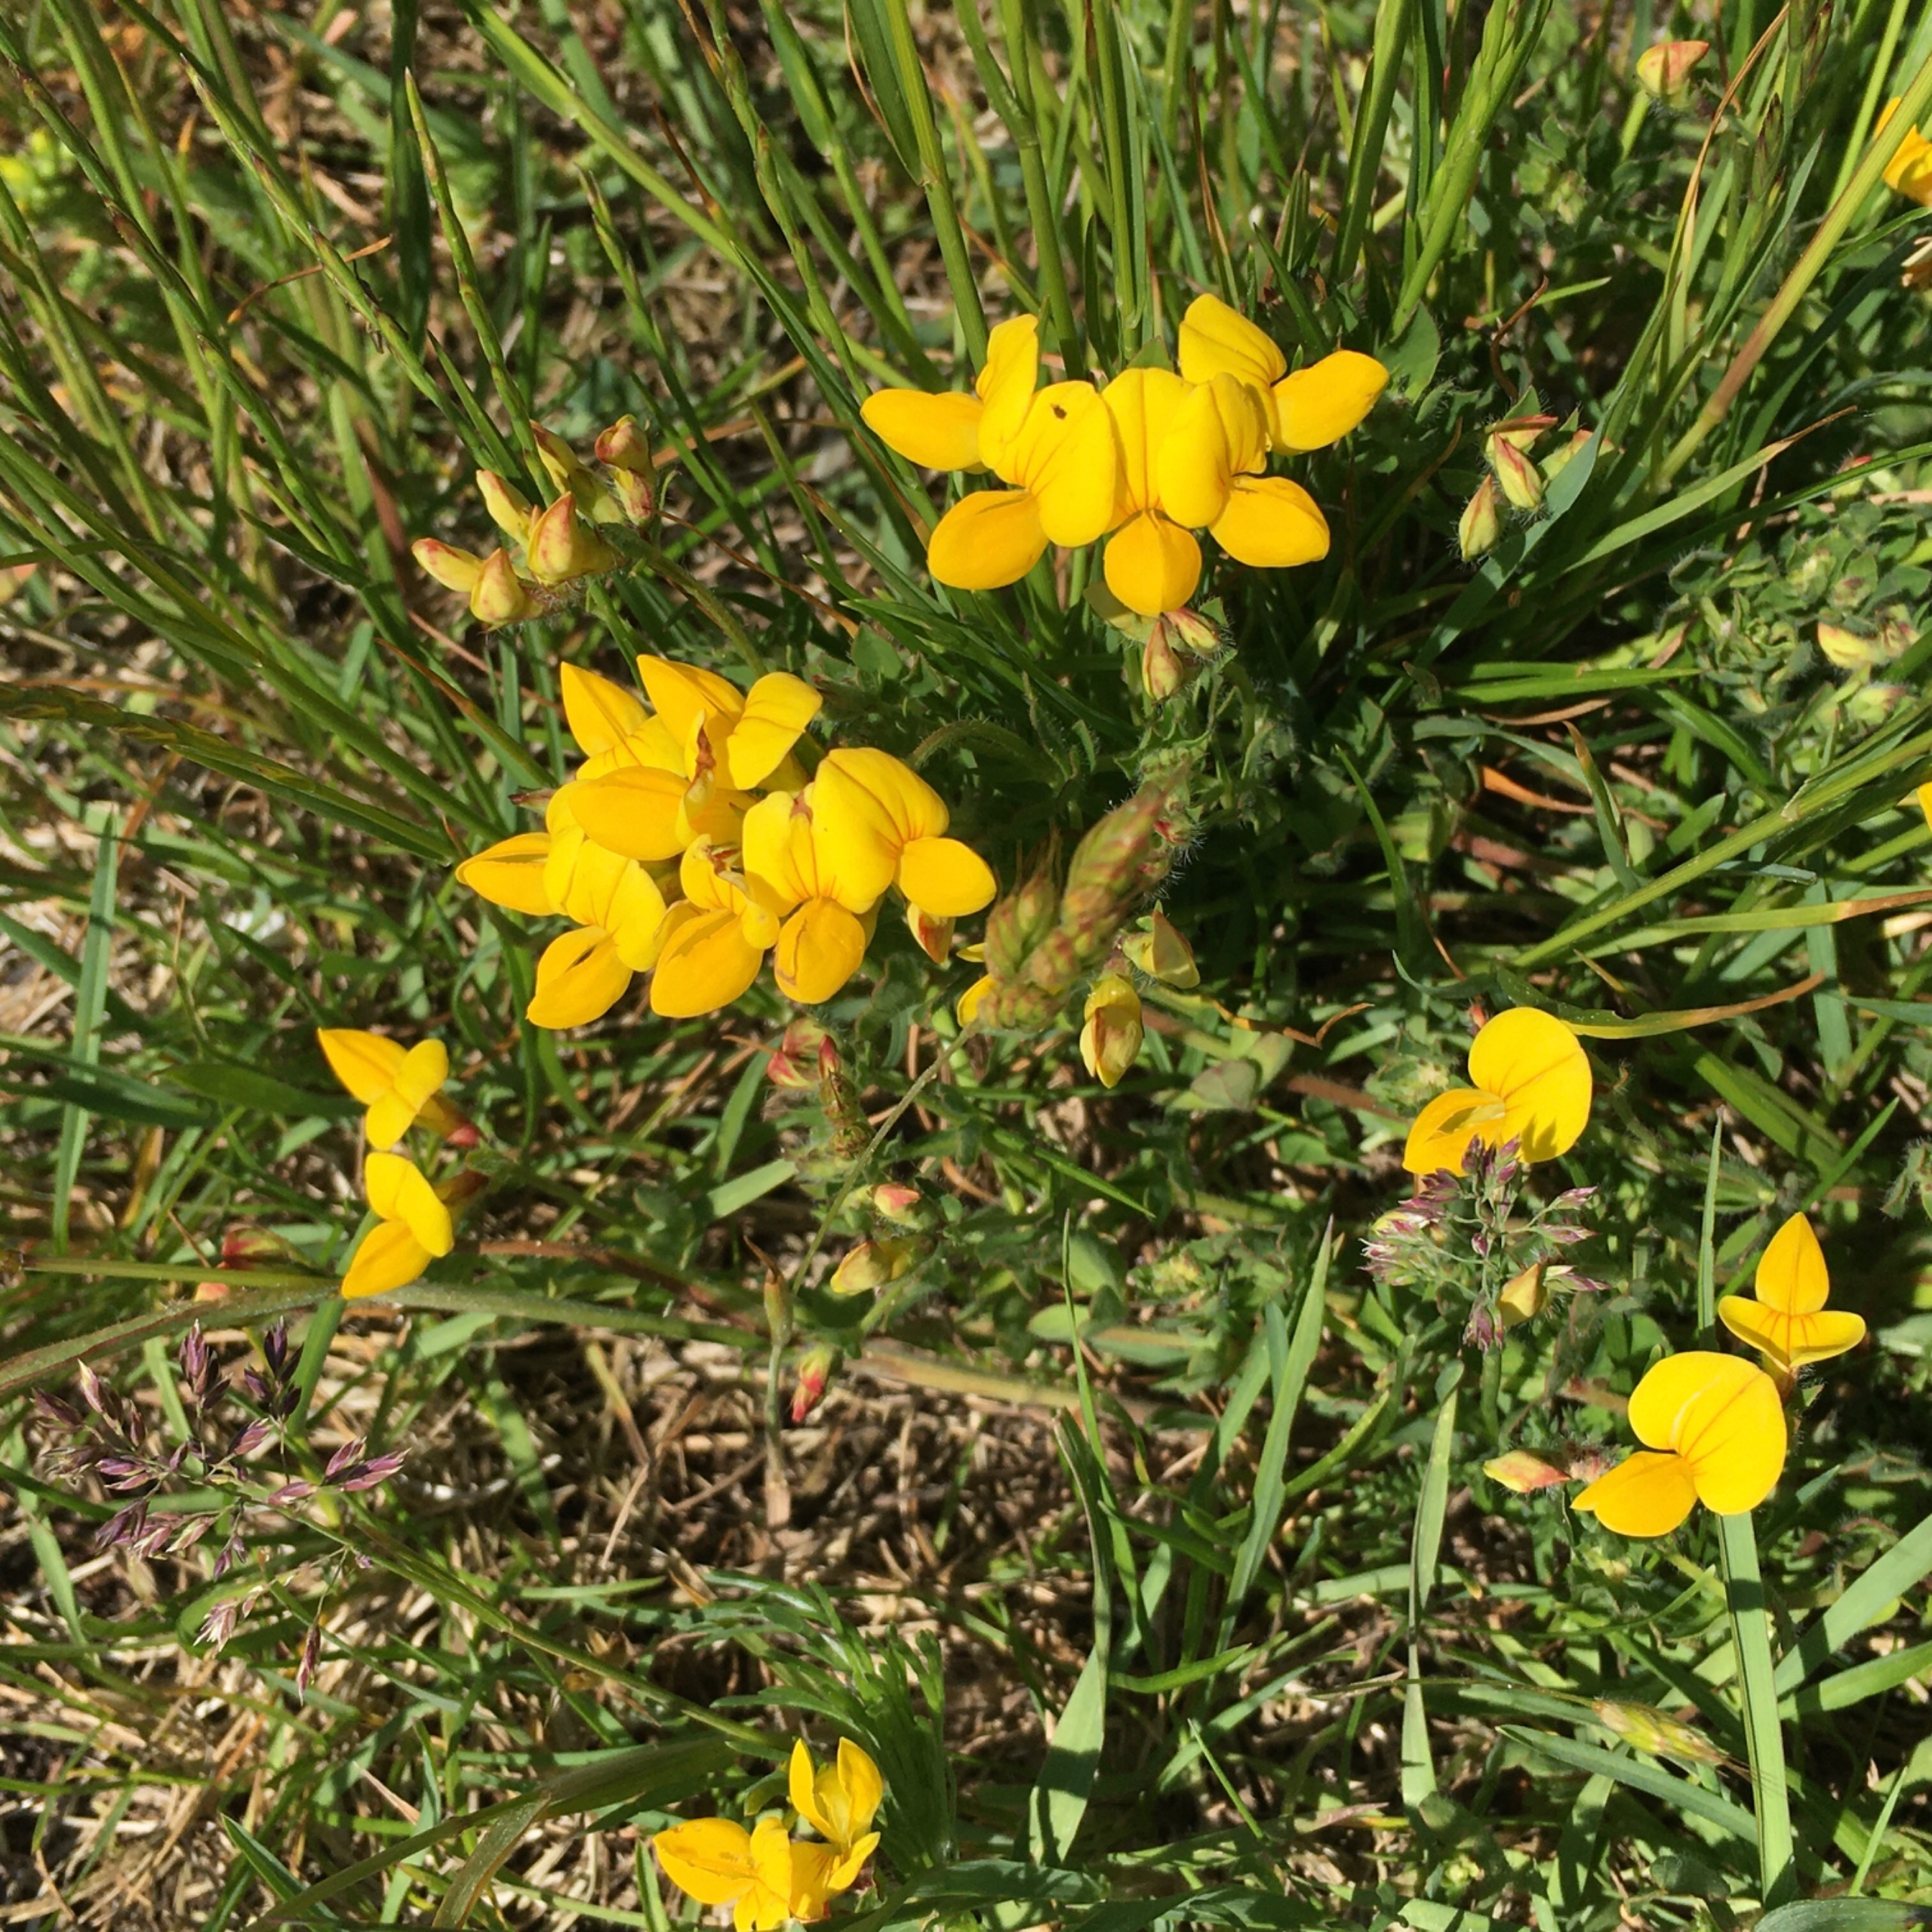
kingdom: Plantae
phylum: Tracheophyta
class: Magnoliopsida
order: Fabales
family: Fabaceae
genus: Lotus
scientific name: Lotus corniculatus
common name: Almindelig kællingetand
